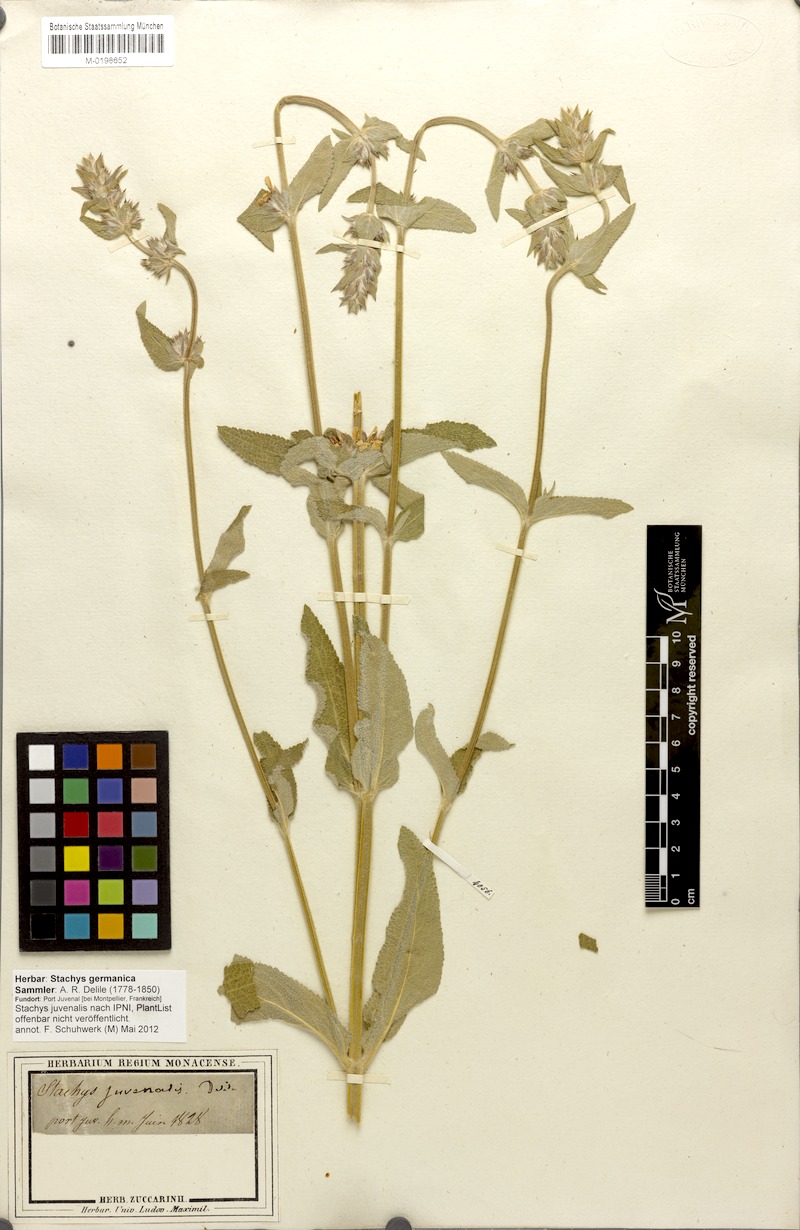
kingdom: Plantae
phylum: Tracheophyta
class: Magnoliopsida
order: Lamiales
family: Lamiaceae
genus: Stachys
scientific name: Stachys germanica
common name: Downy woundwort
